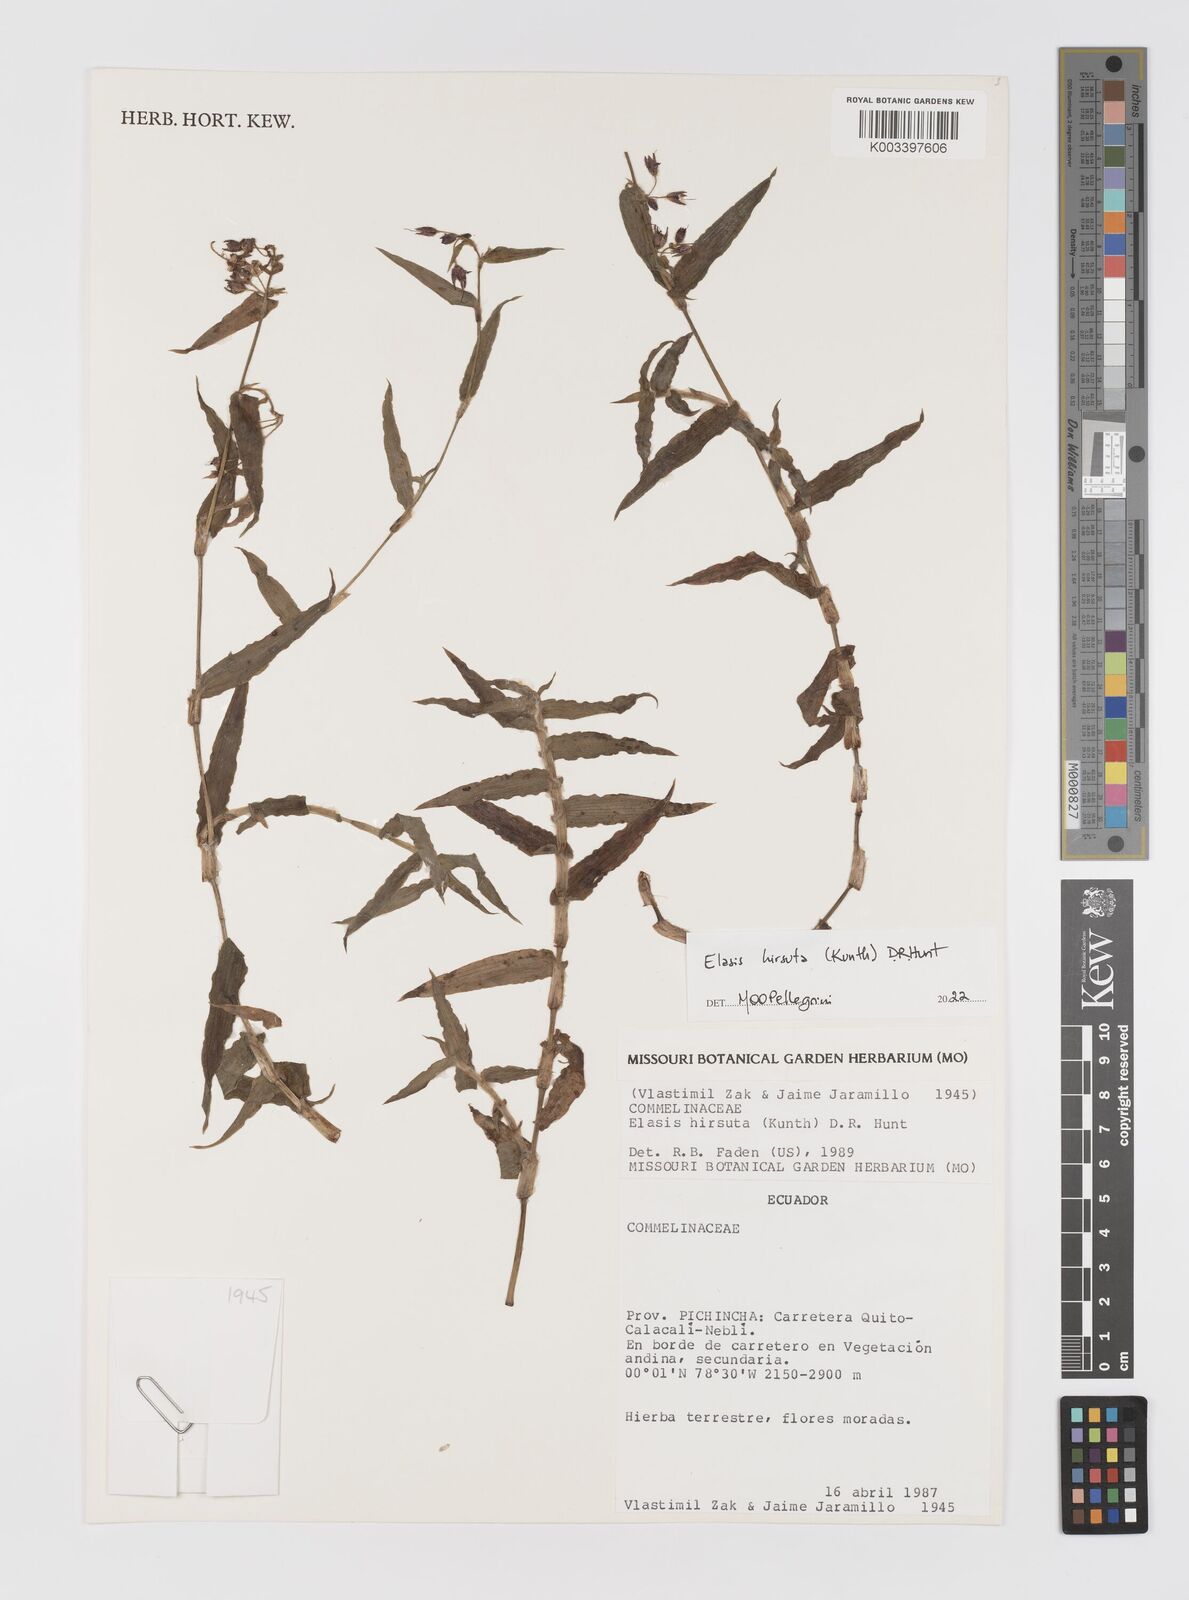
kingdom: Plantae
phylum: Tracheophyta
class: Liliopsida
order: Commelinales
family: Commelinaceae
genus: Elasis
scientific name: Elasis hirsuta
